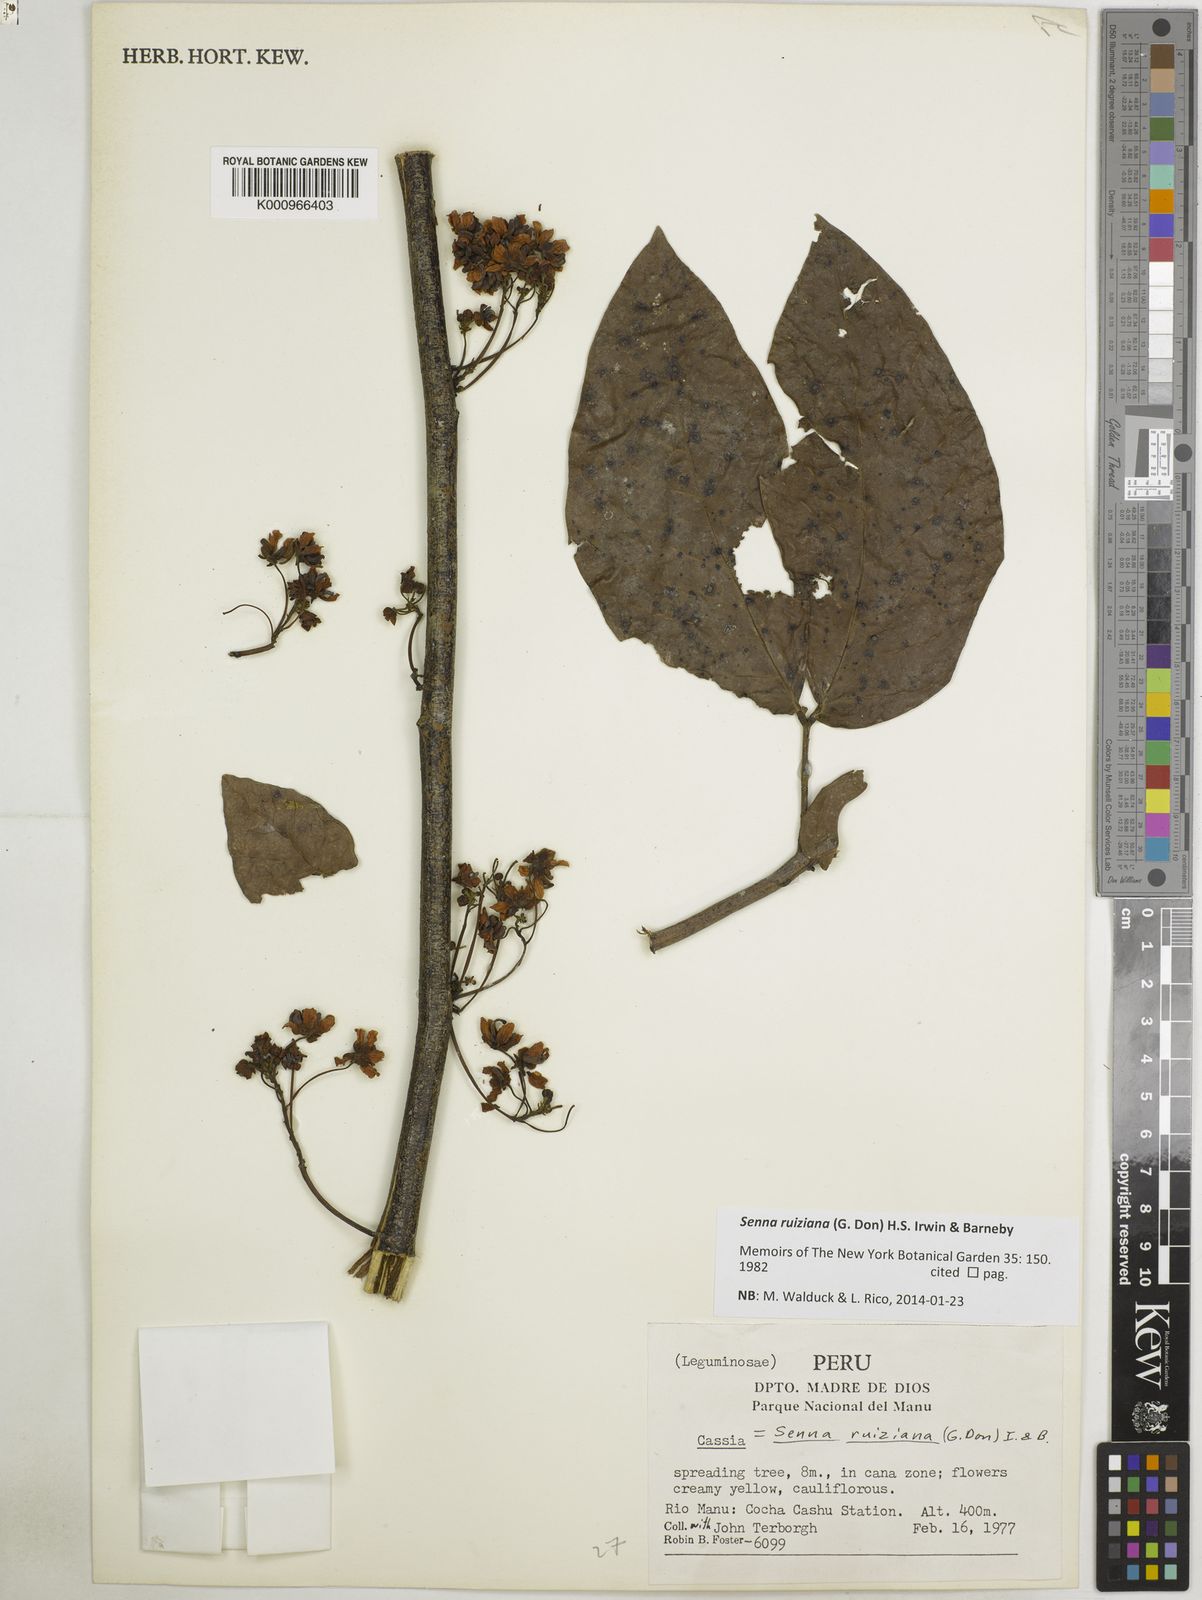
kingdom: Plantae
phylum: Tracheophyta
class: Magnoliopsida
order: Fabales
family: Fabaceae
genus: Senna
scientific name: Senna ruiziana
